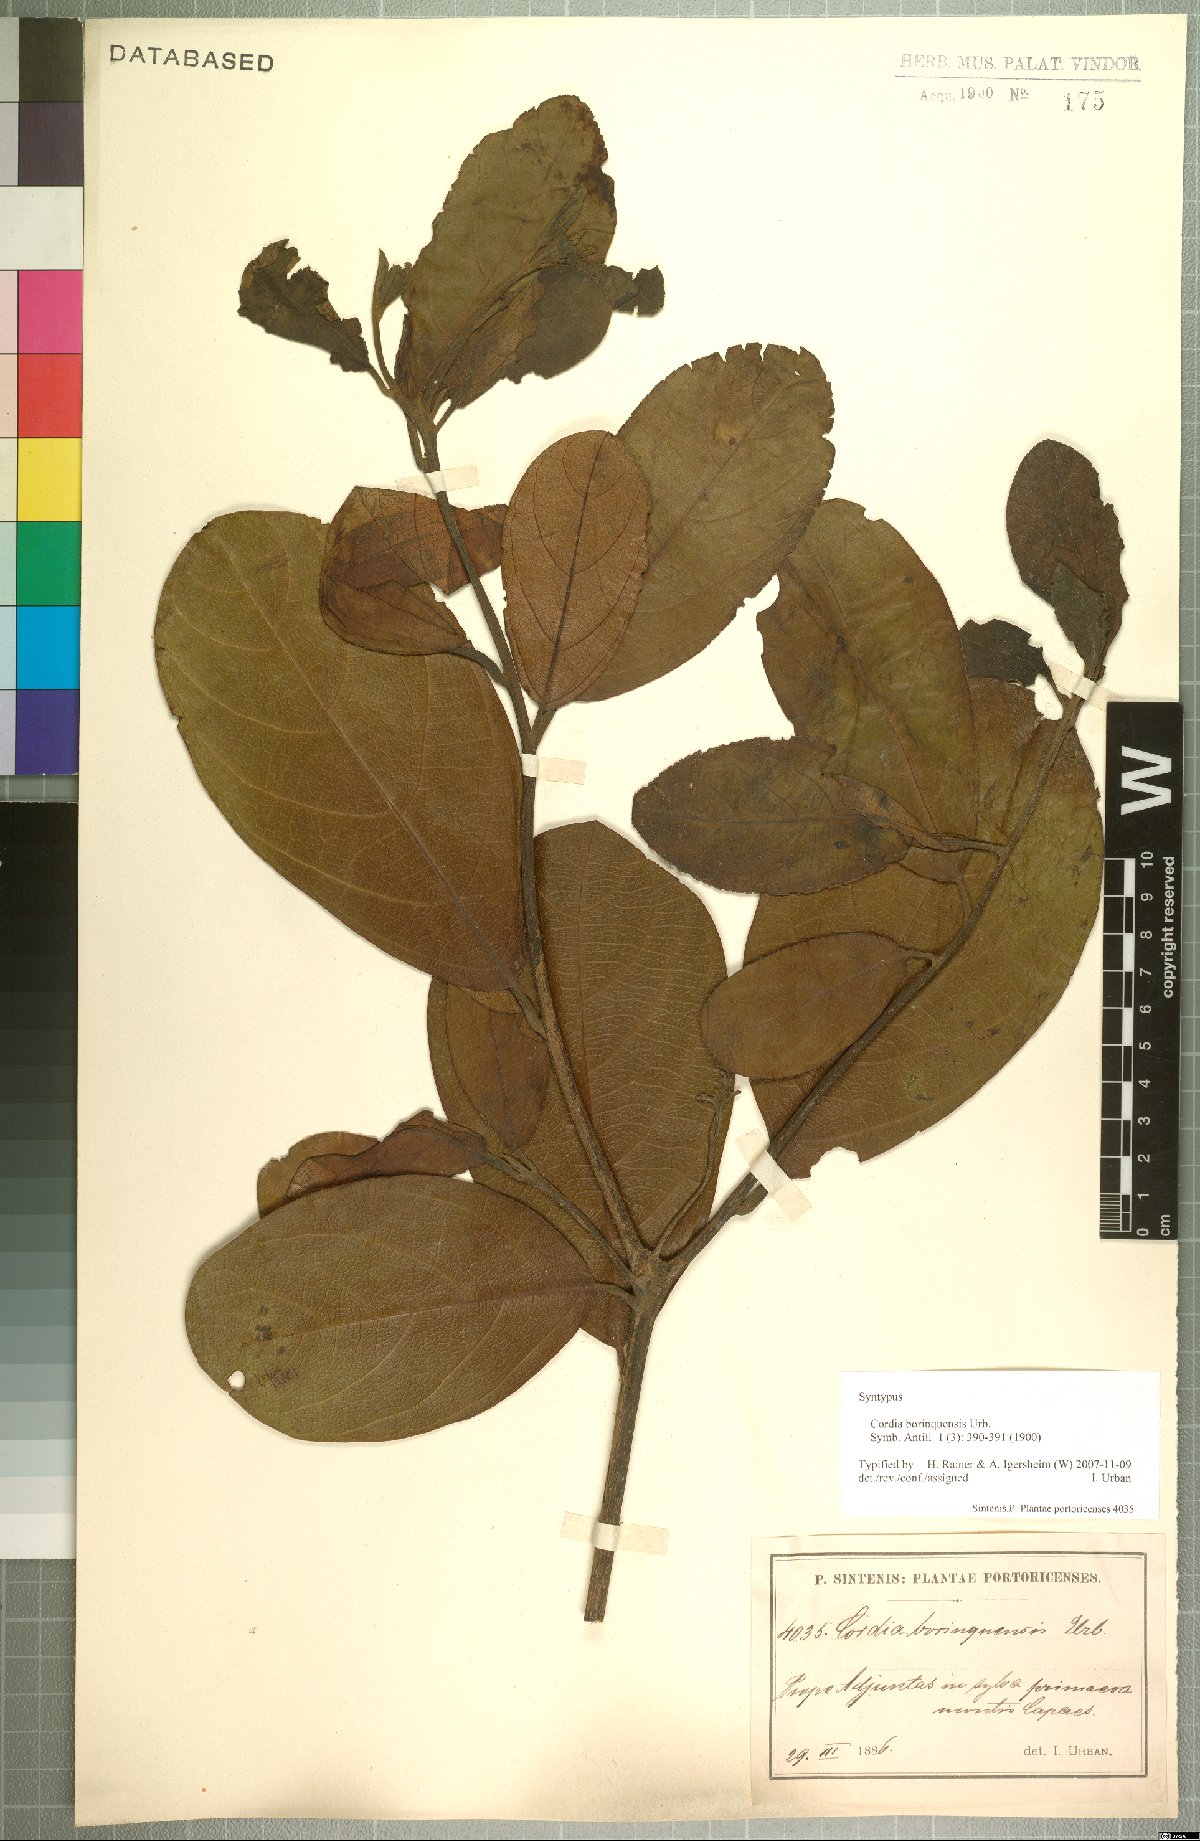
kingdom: Plantae
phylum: Tracheophyta
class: Magnoliopsida
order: Boraginales
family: Cordiaceae
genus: Cordia
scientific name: Cordia borinquensis
